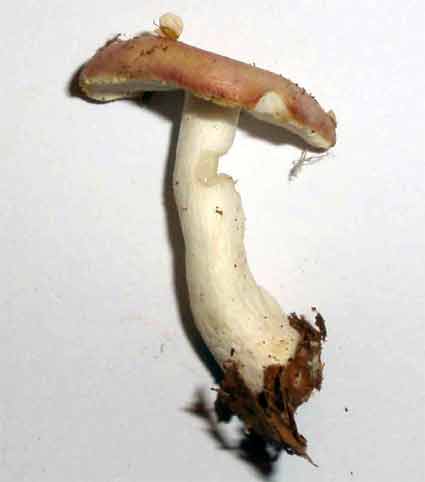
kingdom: Fungi
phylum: Basidiomycota
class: Agaricomycetes
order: Russulales
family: Russulaceae
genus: Russula
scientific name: Russula depallens
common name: falmende skørhat
